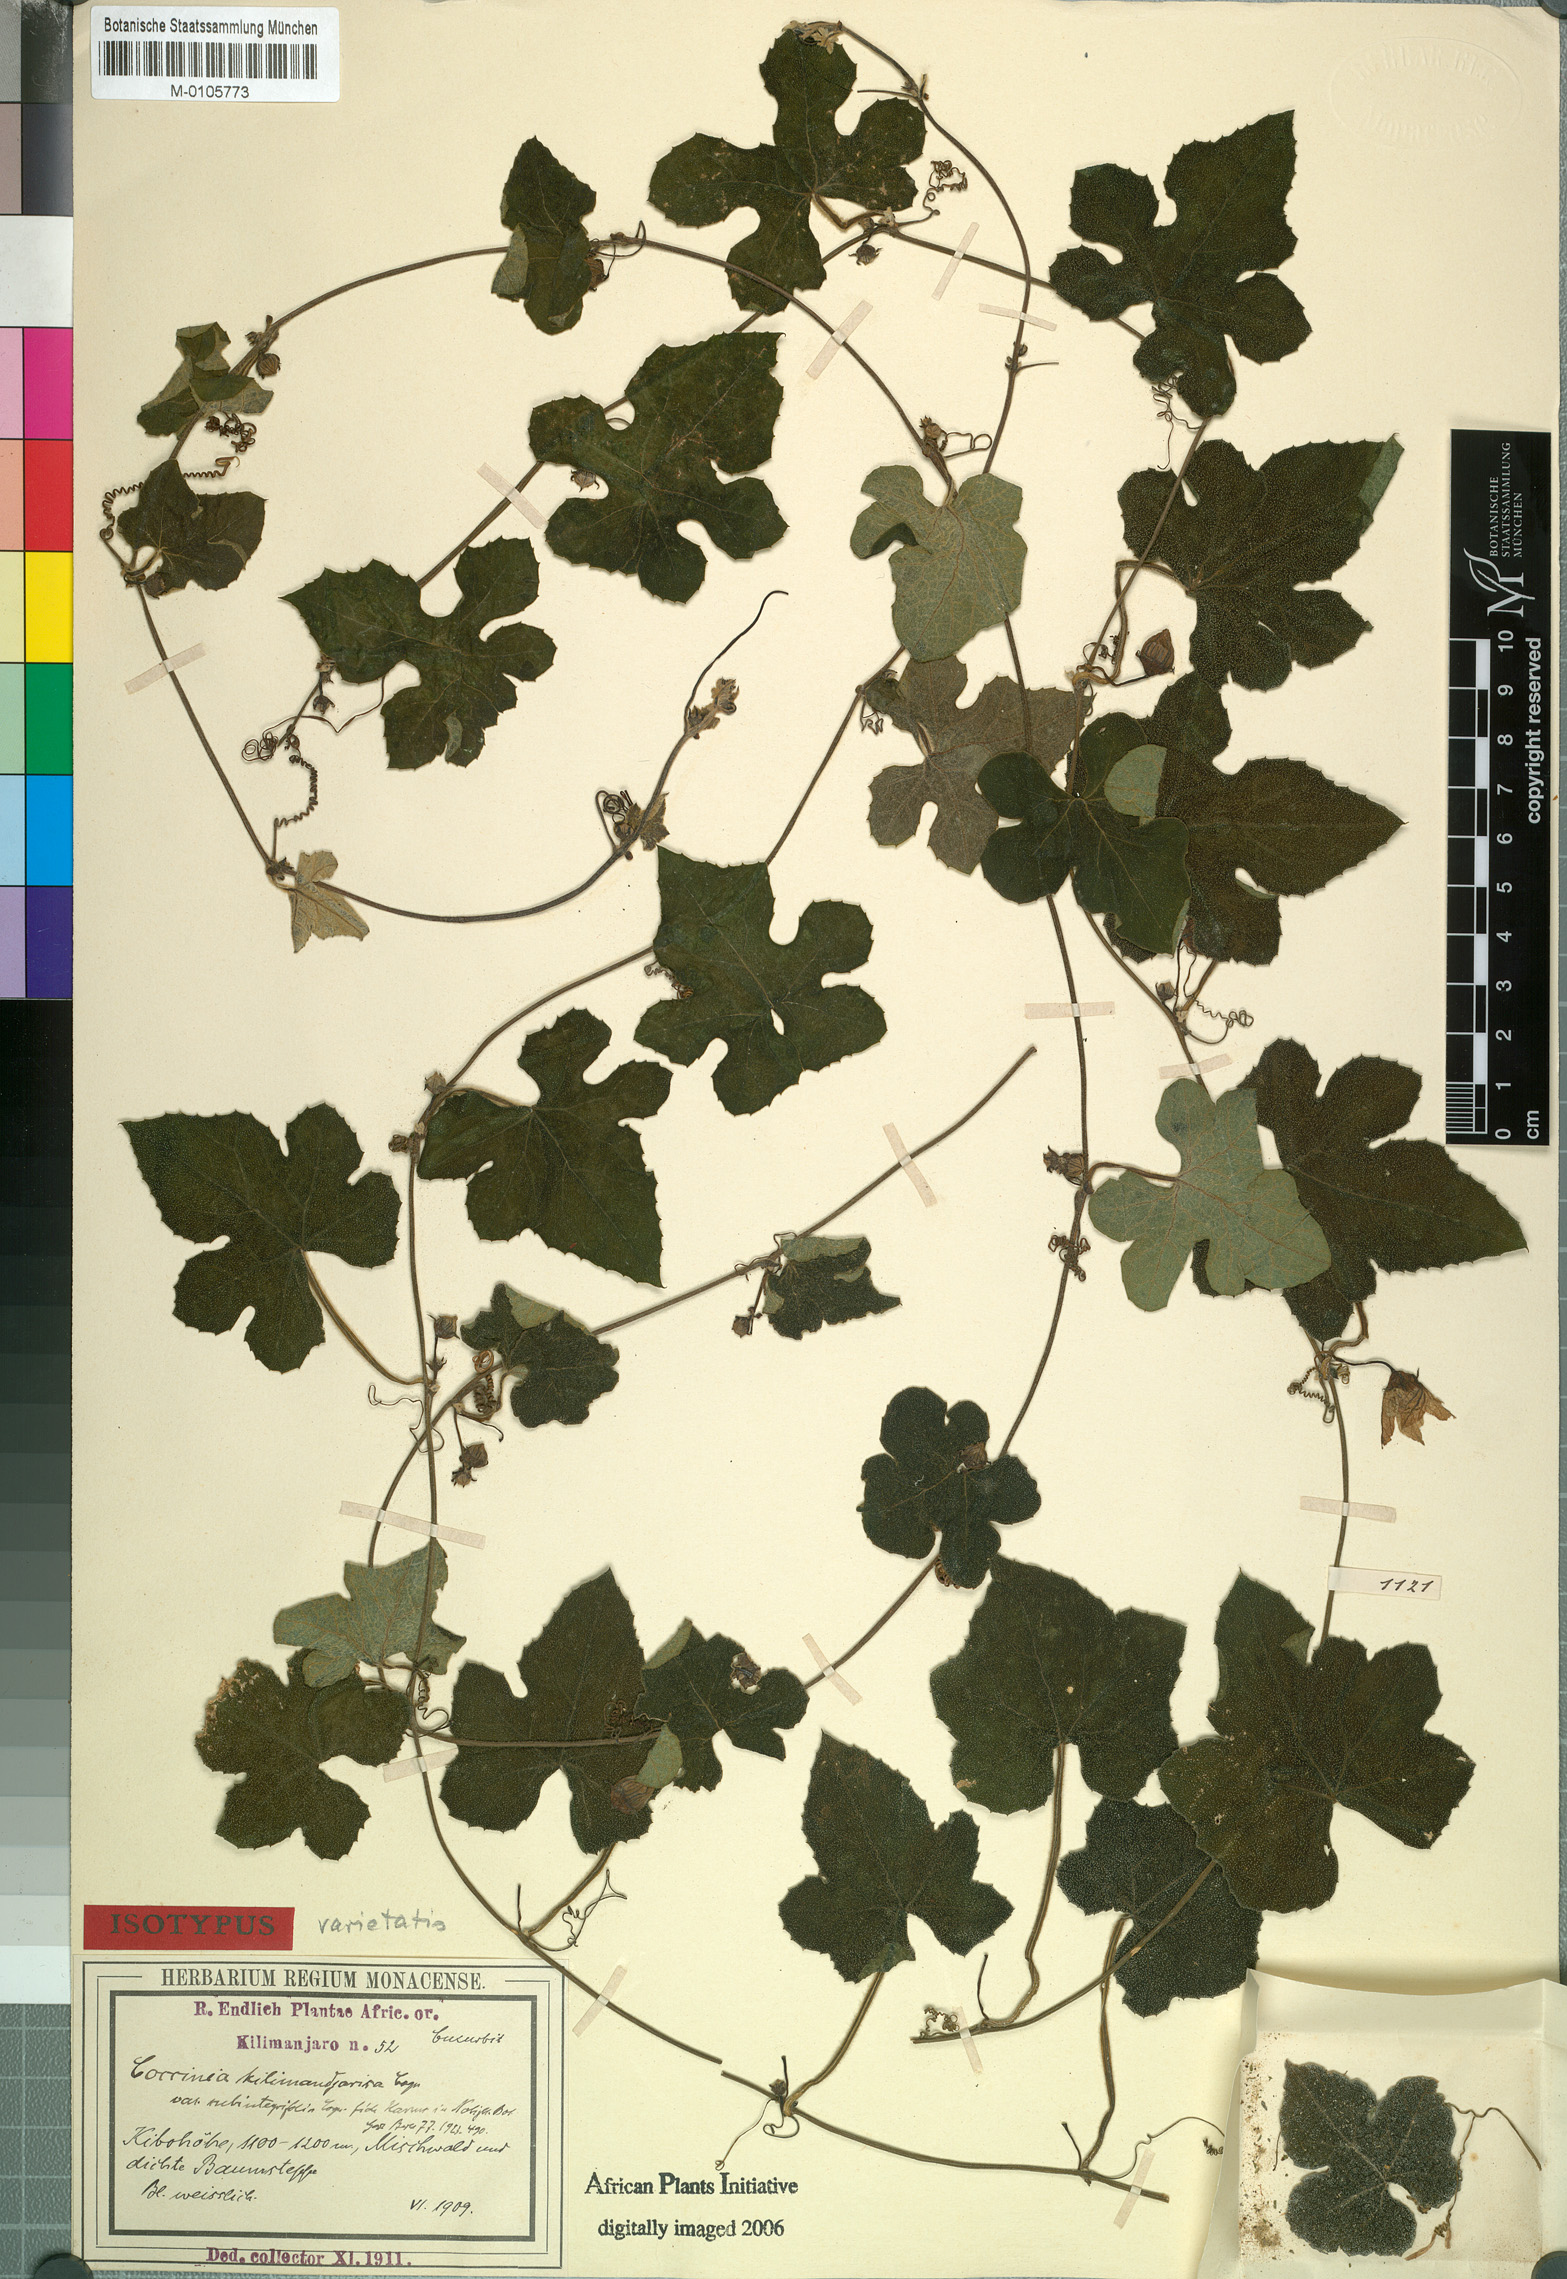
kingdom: Plantae
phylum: Tracheophyta
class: Magnoliopsida
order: Cucurbitales
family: Cucurbitaceae
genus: Coccinia
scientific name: Coccinia trilobata
